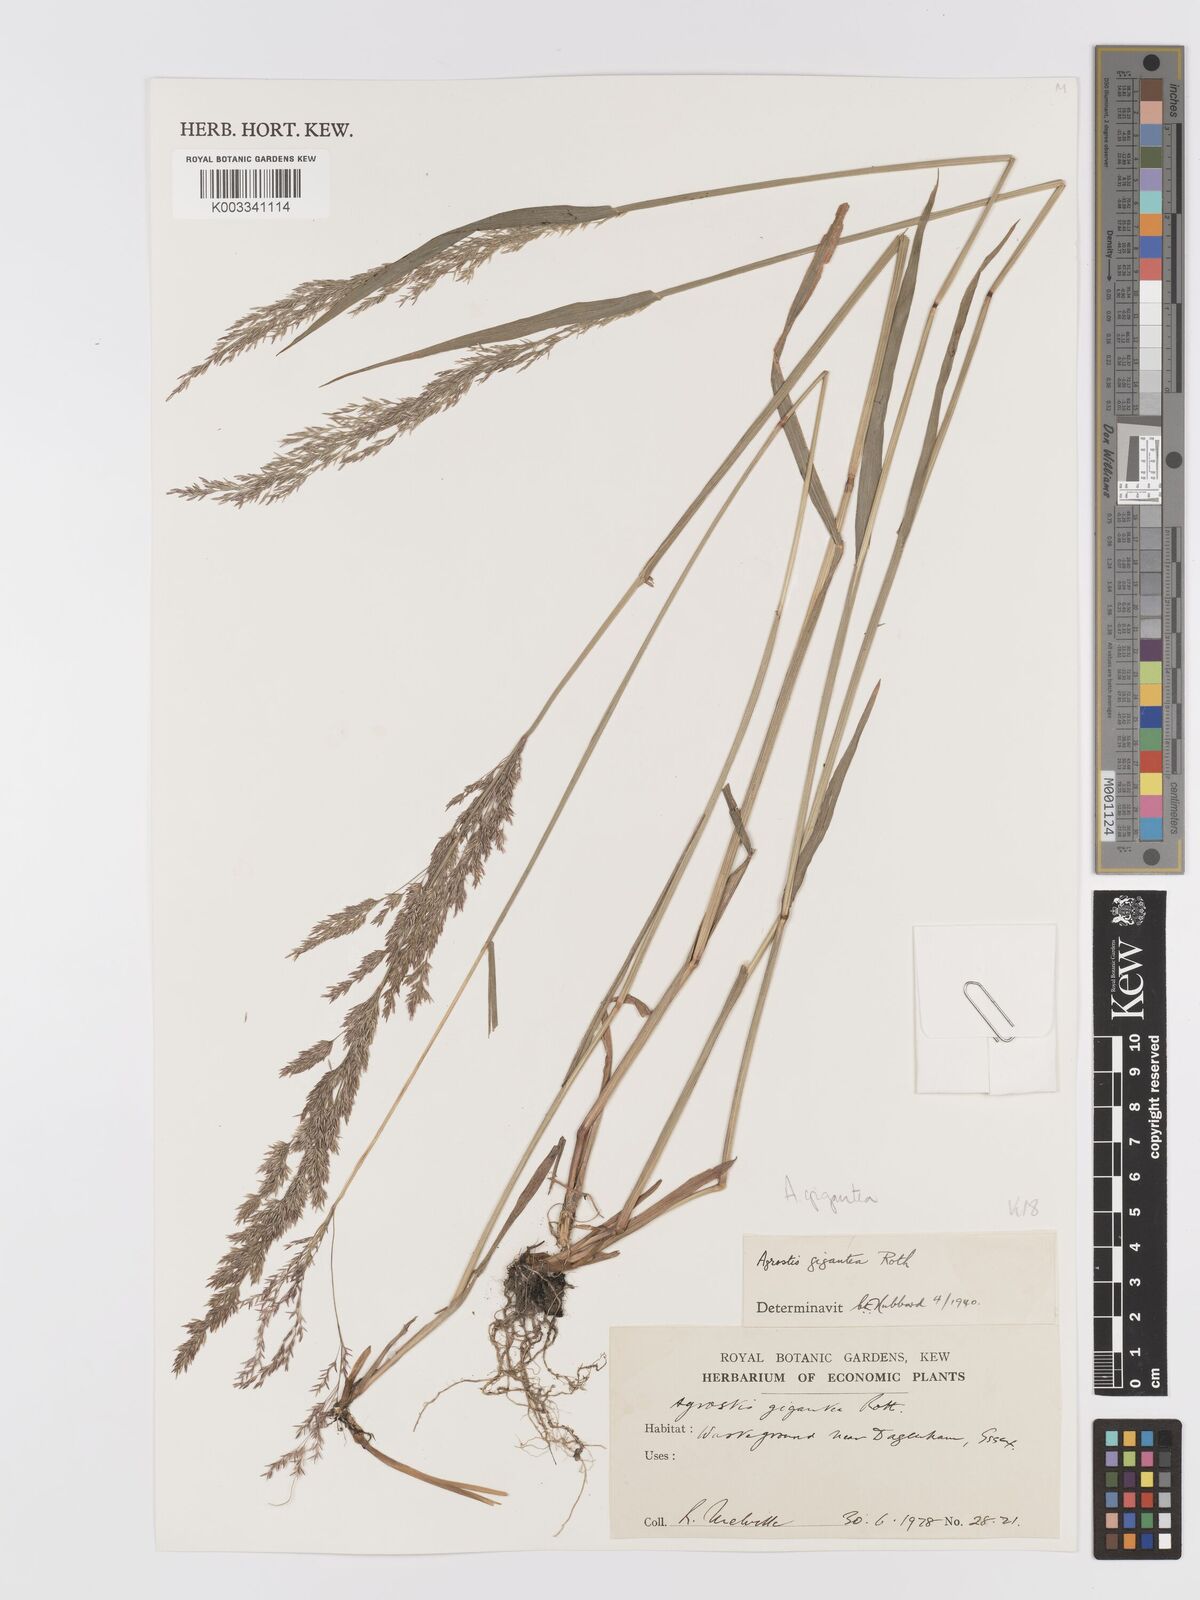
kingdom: Plantae
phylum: Tracheophyta
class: Liliopsida
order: Poales
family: Poaceae
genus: Agrostis
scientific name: Agrostis gigantea
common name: Black bent
